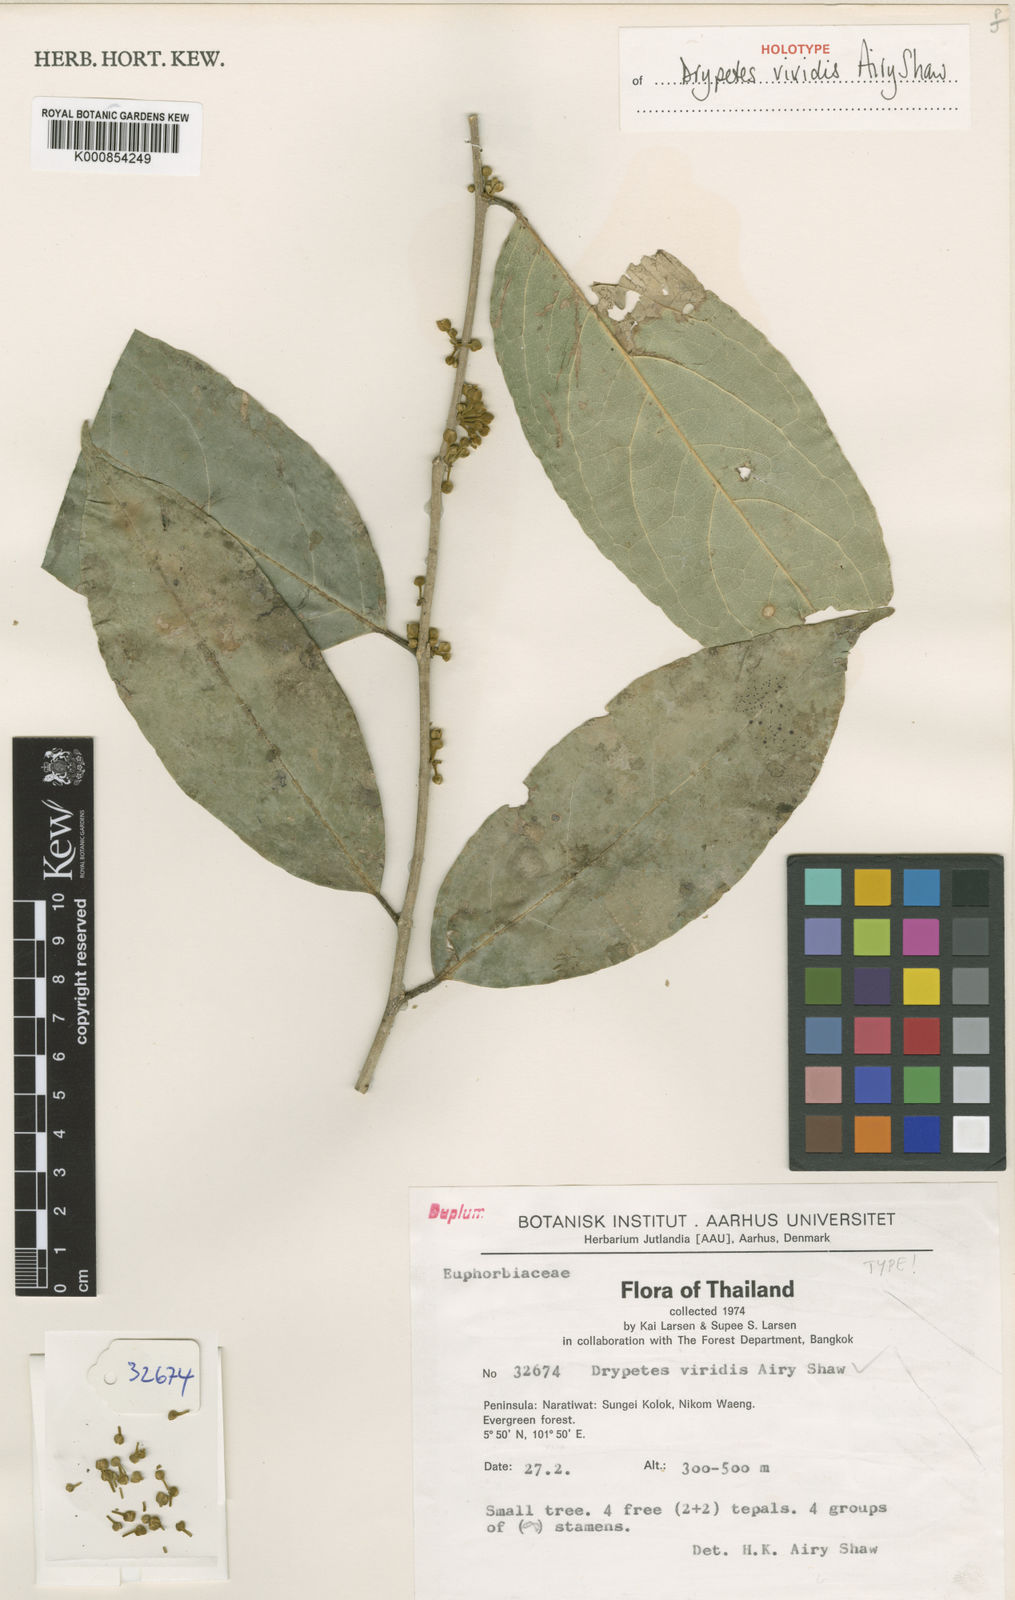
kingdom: Plantae
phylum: Tracheophyta
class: Magnoliopsida
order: Malpighiales
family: Putranjivaceae
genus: Drypetes
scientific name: Drypetes viridis
